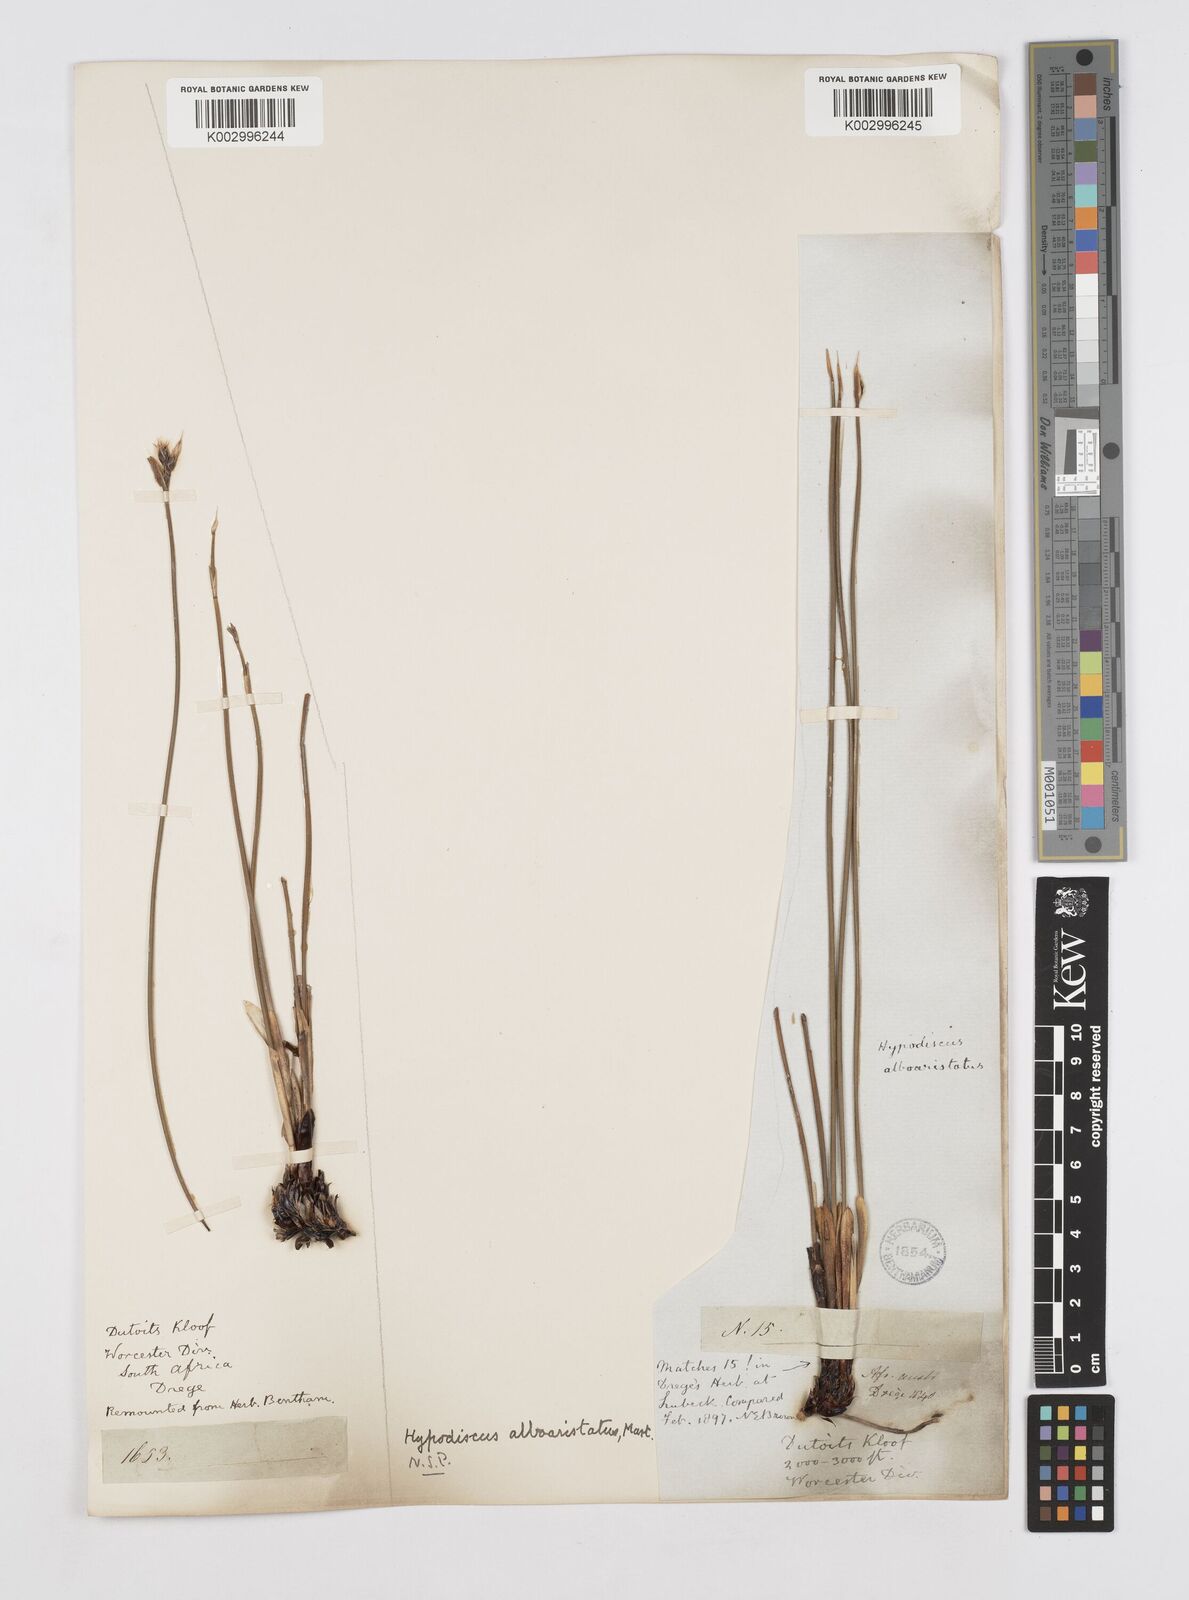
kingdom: Plantae
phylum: Tracheophyta
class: Liliopsida
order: Poales
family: Restionaceae
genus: Hypodiscus
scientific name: Hypodiscus alboaristatus
